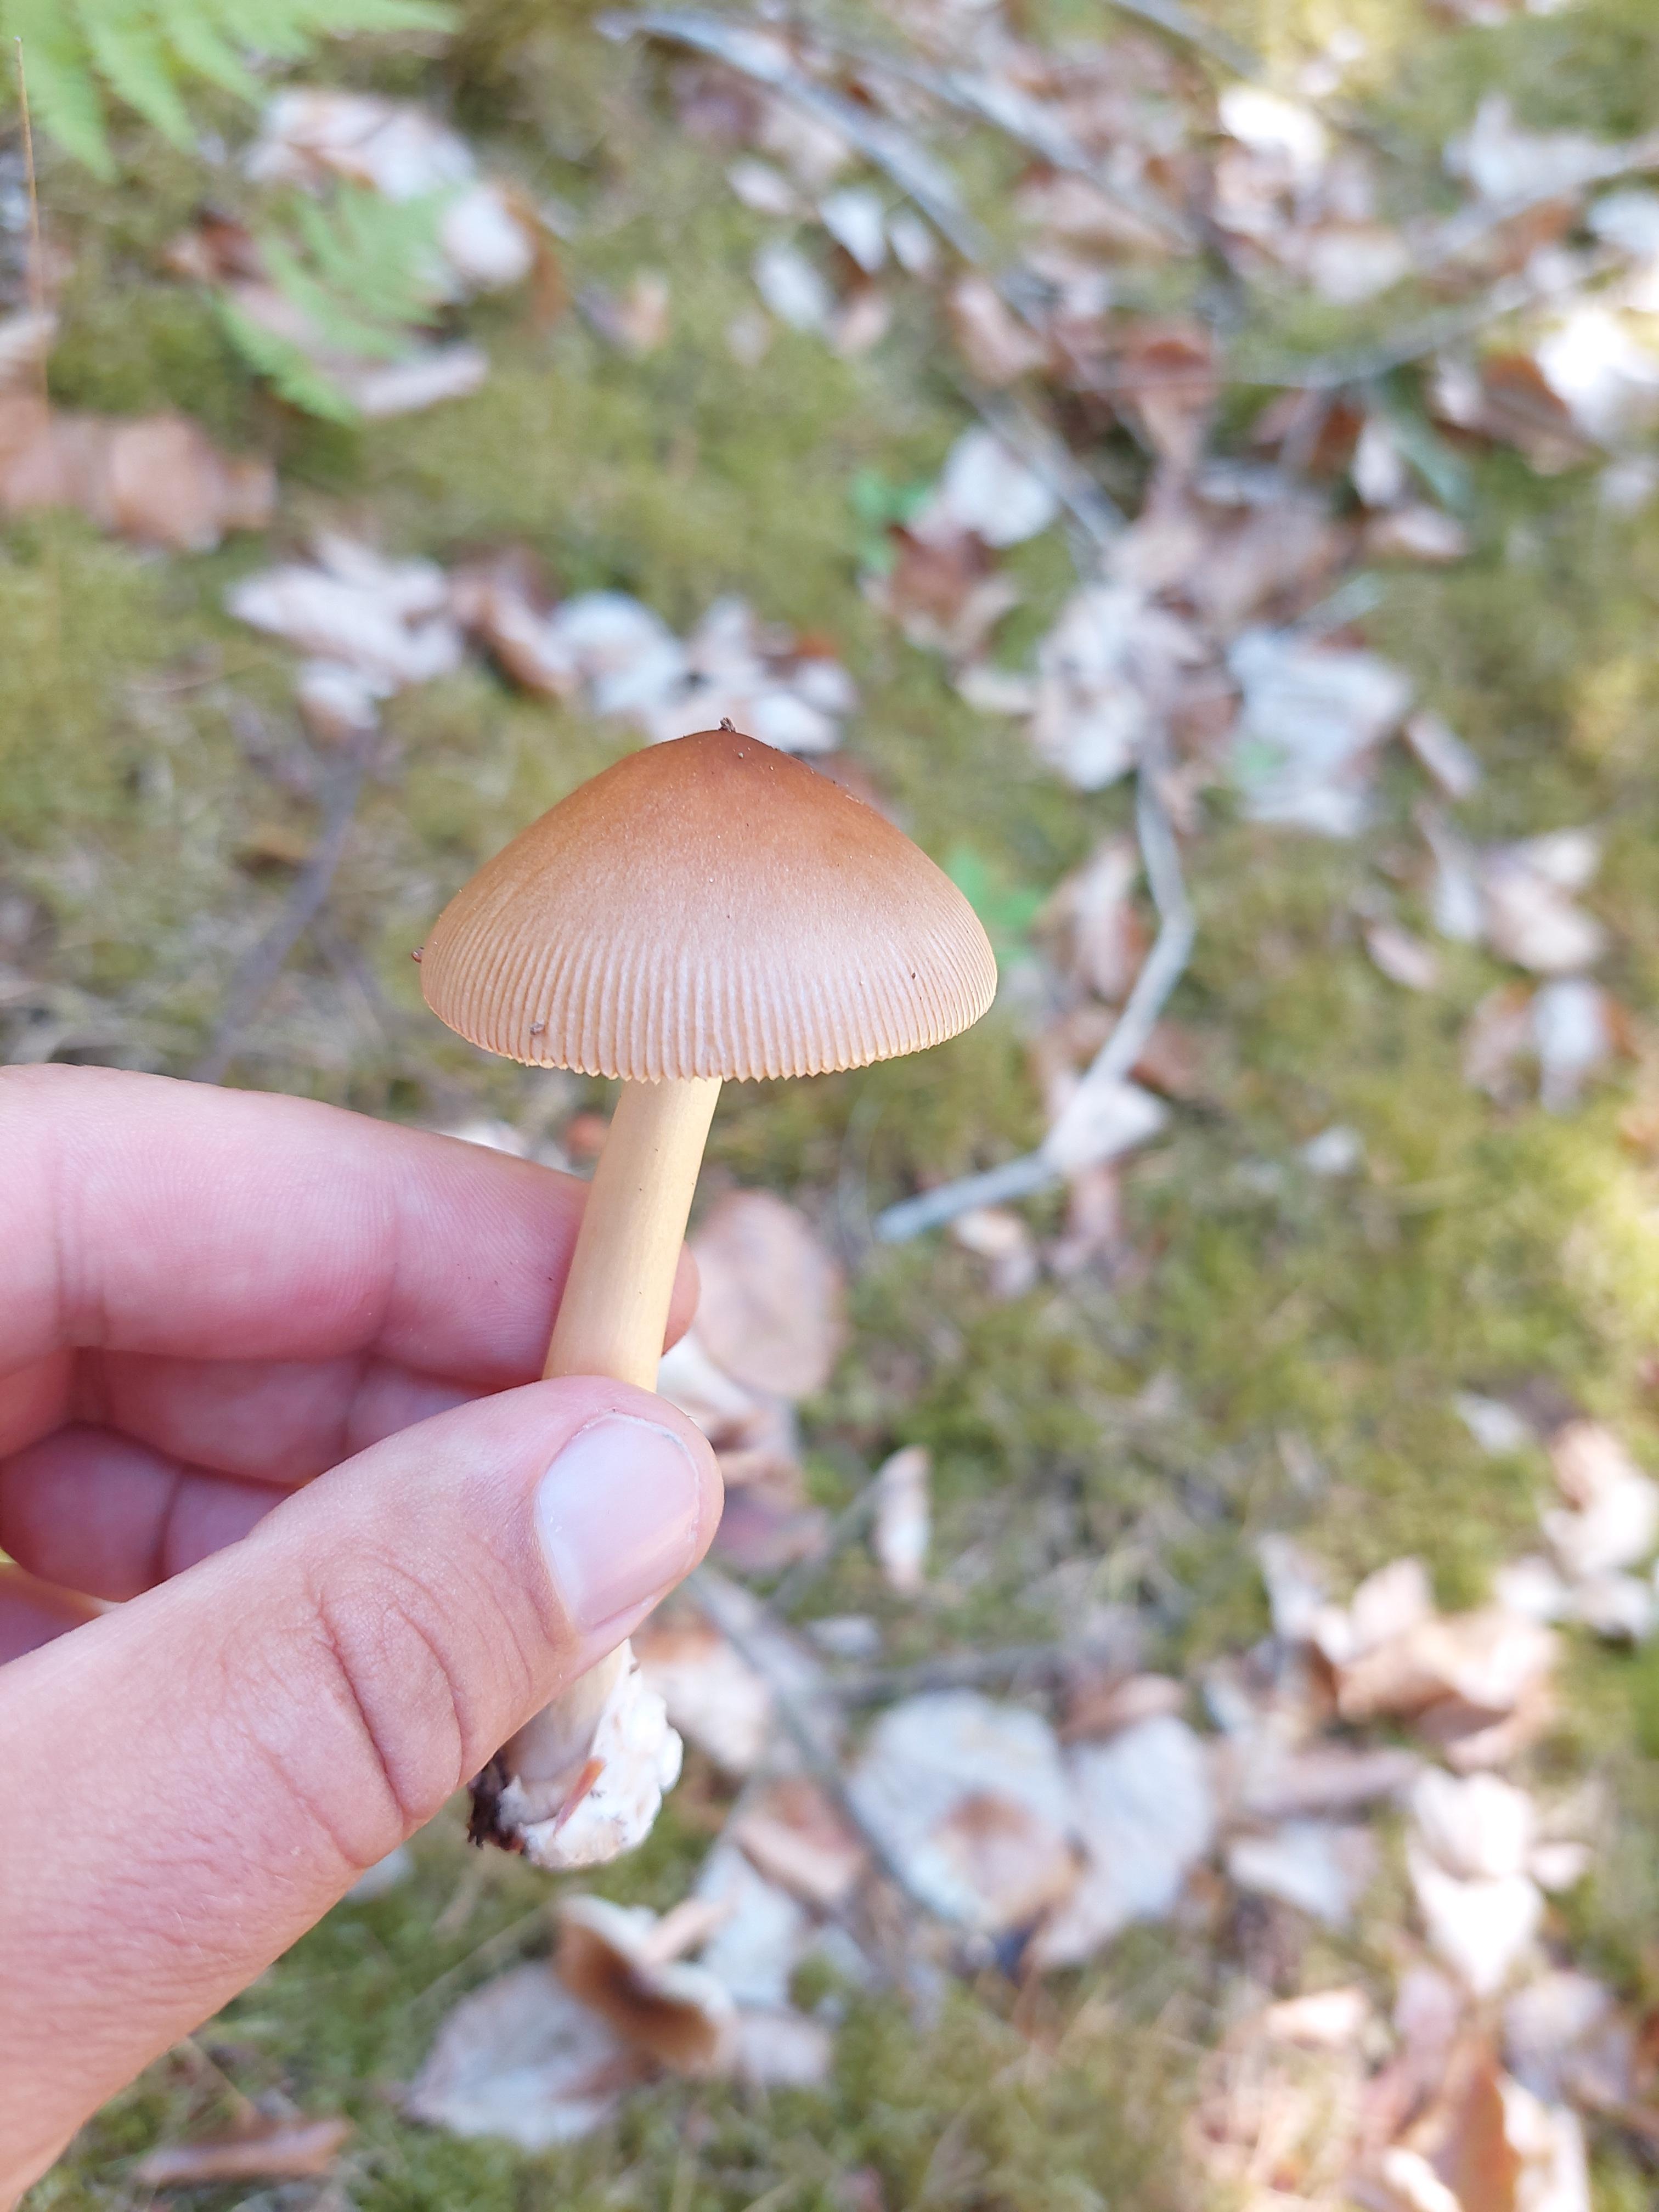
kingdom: Fungi
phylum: Basidiomycota
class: Agaricomycetes
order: Agaricales
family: Amanitaceae
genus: Amanita
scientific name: Amanita fulva
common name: brun kam-fluesvamp
